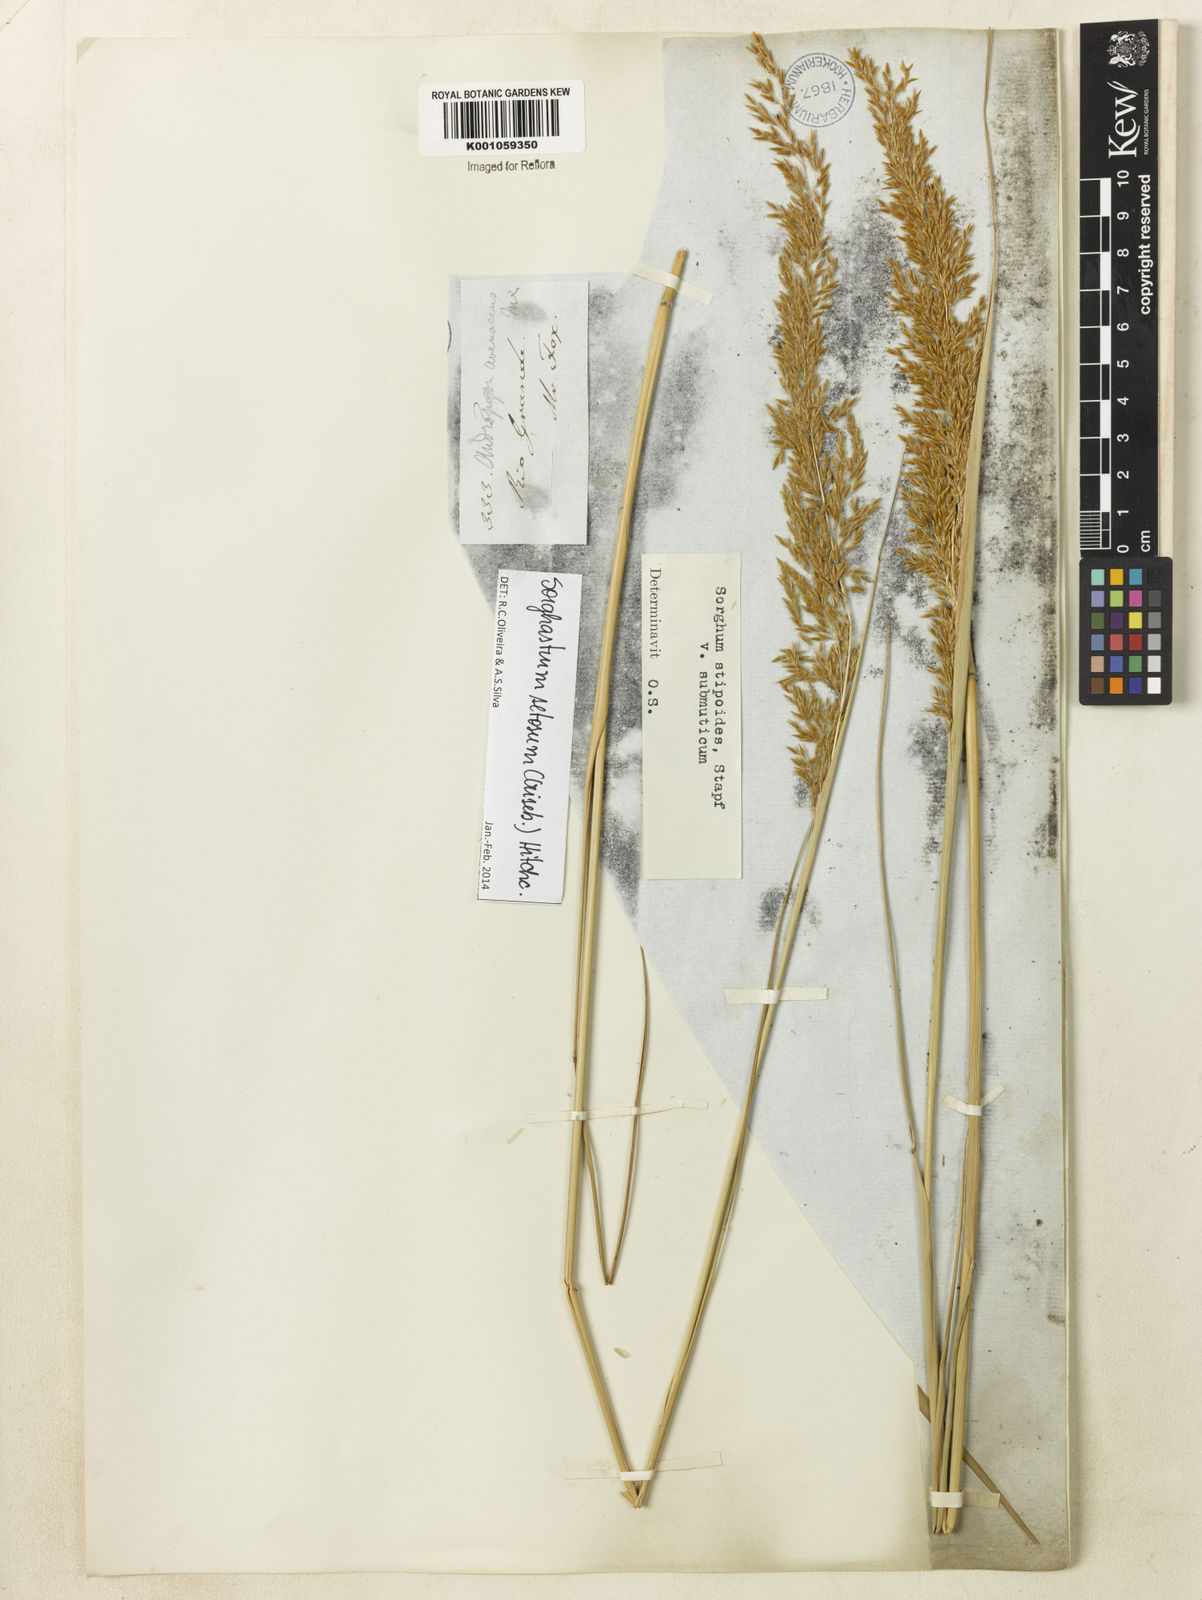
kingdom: Plantae
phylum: Tracheophyta
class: Liliopsida
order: Poales
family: Poaceae
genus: Sorghastrum
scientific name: Sorghastrum setosum
